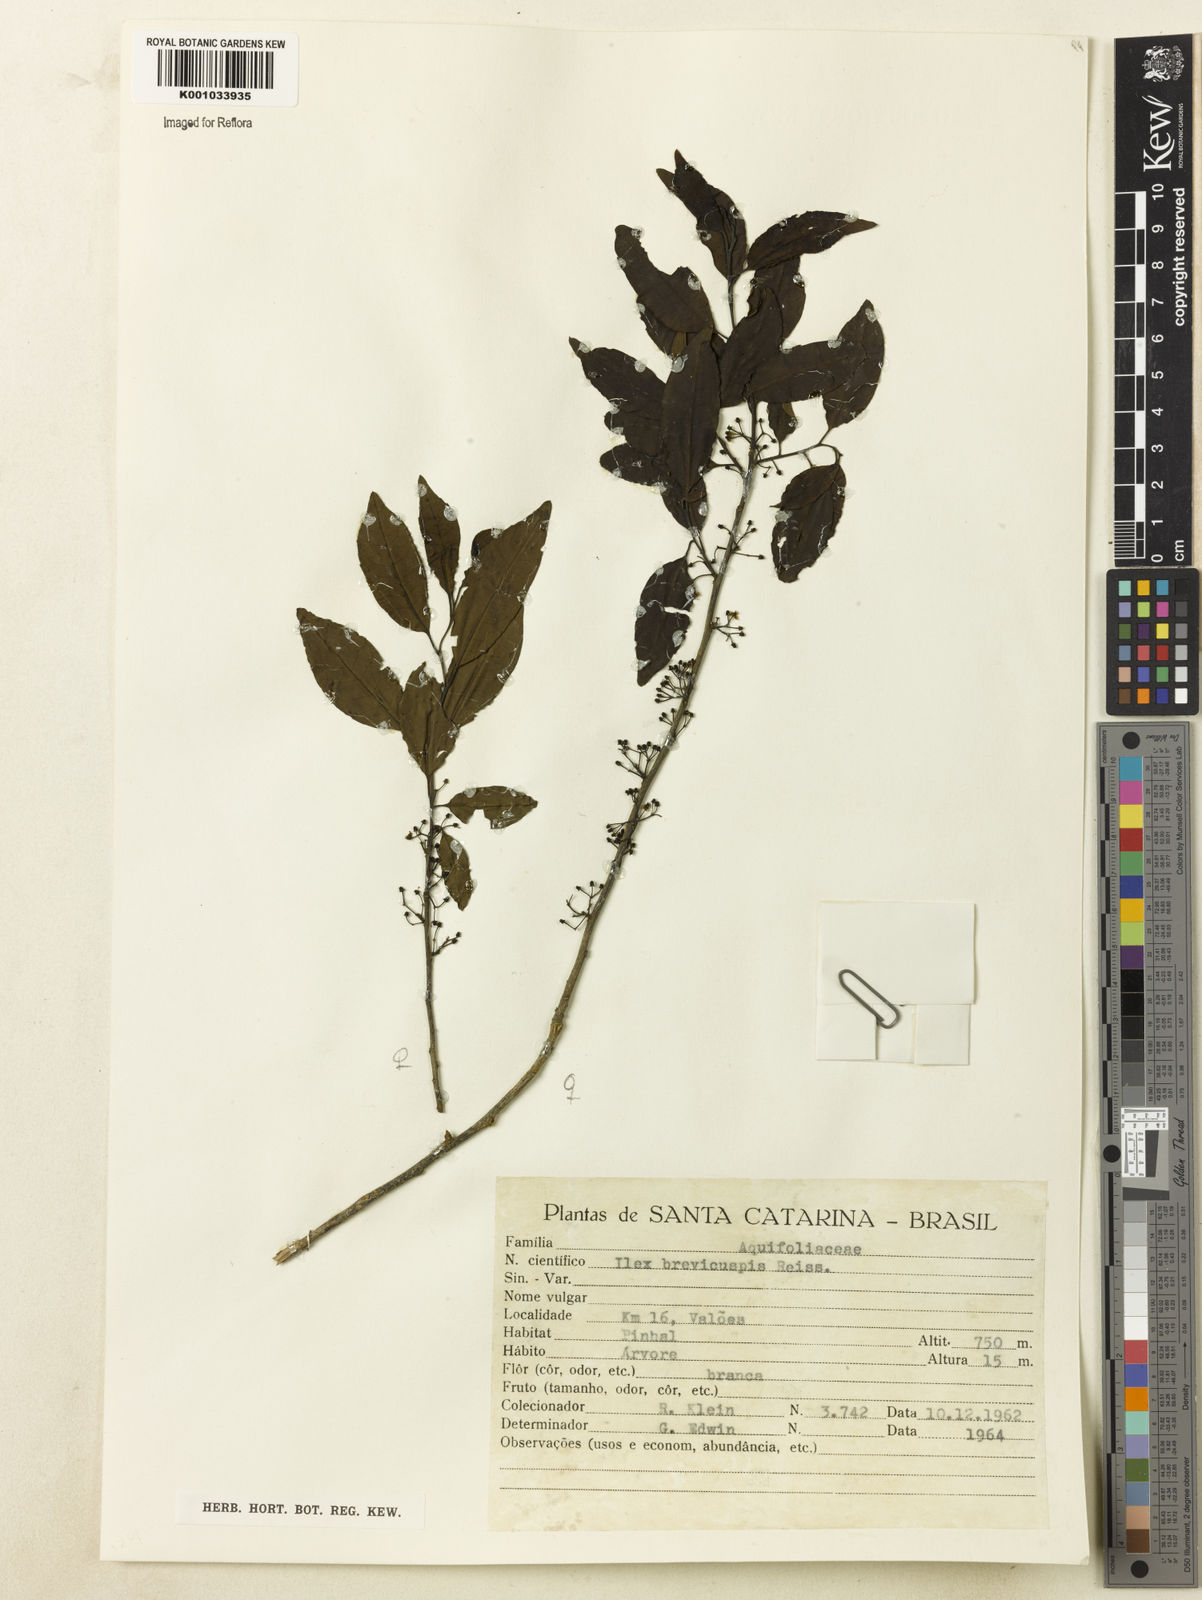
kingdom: Plantae
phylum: Tracheophyta
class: Magnoliopsida
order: Aquifoliales
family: Aquifoliaceae
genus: Ilex
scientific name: Ilex brevicuspis
